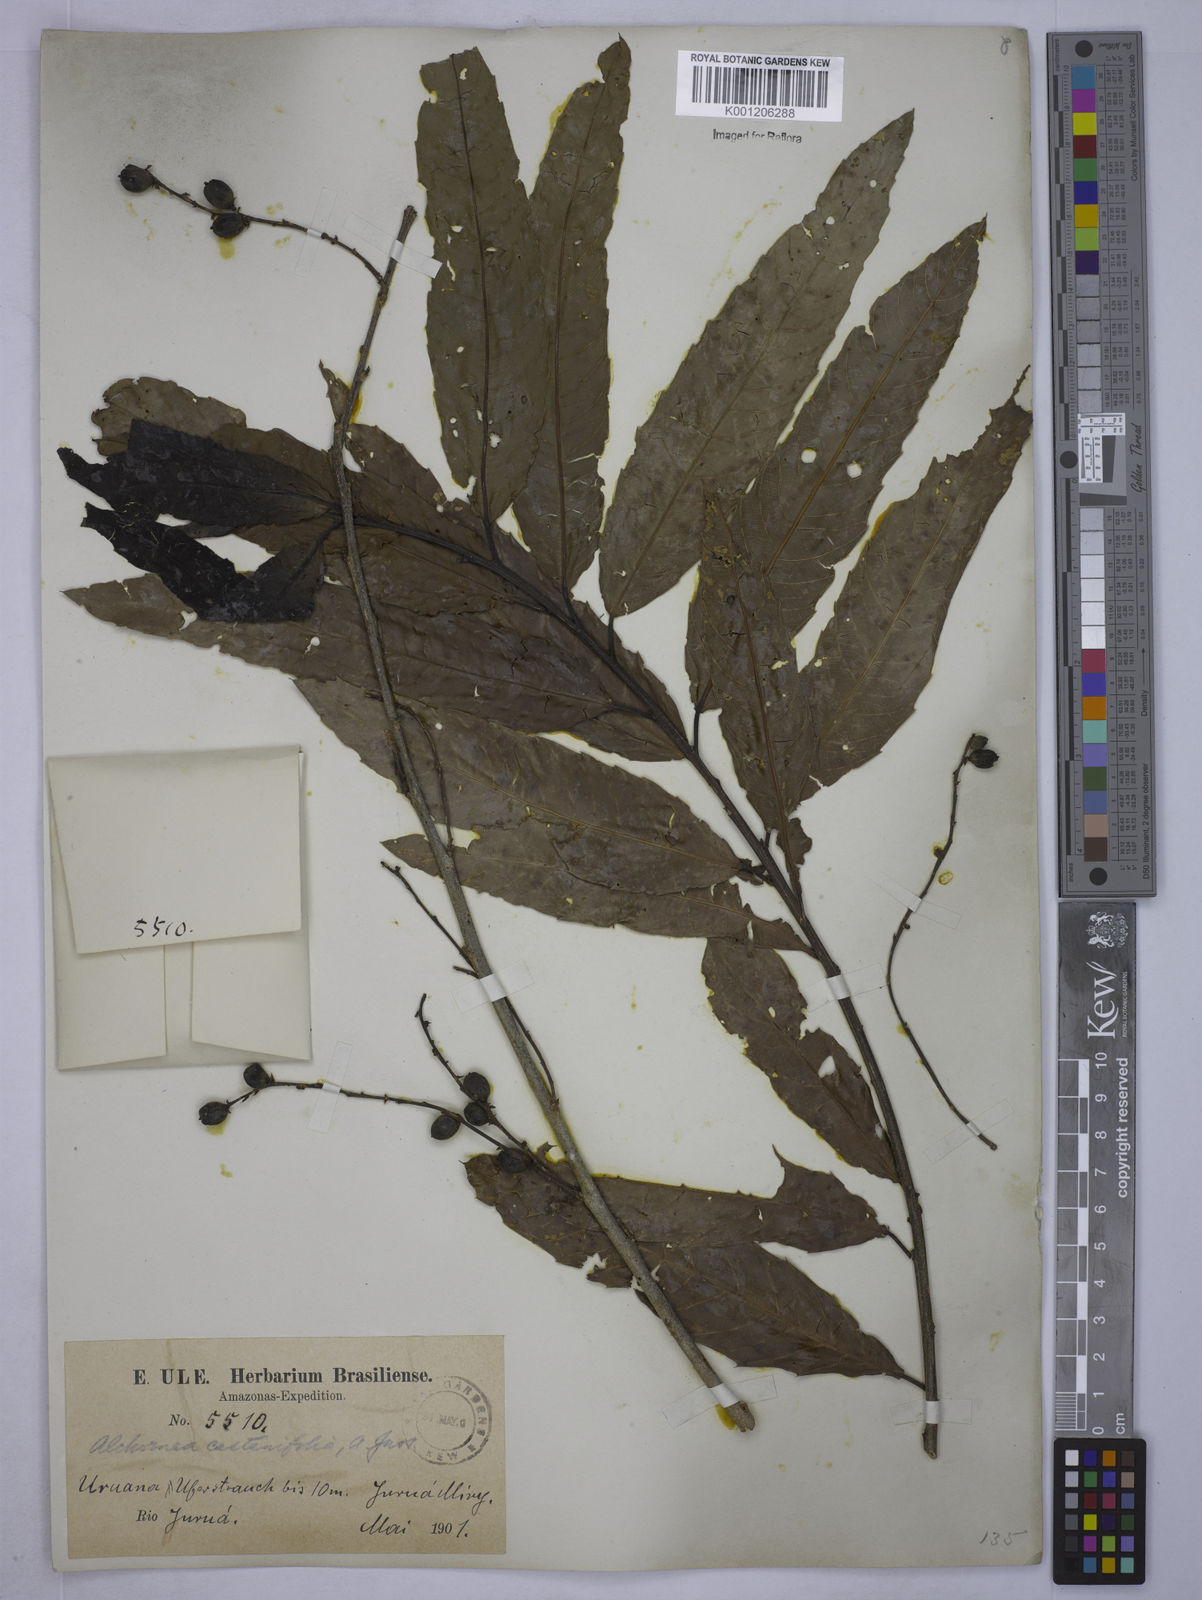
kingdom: Plantae
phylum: Tracheophyta
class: Magnoliopsida
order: Malpighiales
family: Euphorbiaceae
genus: Alchornea
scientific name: Alchornea castaneifolia
